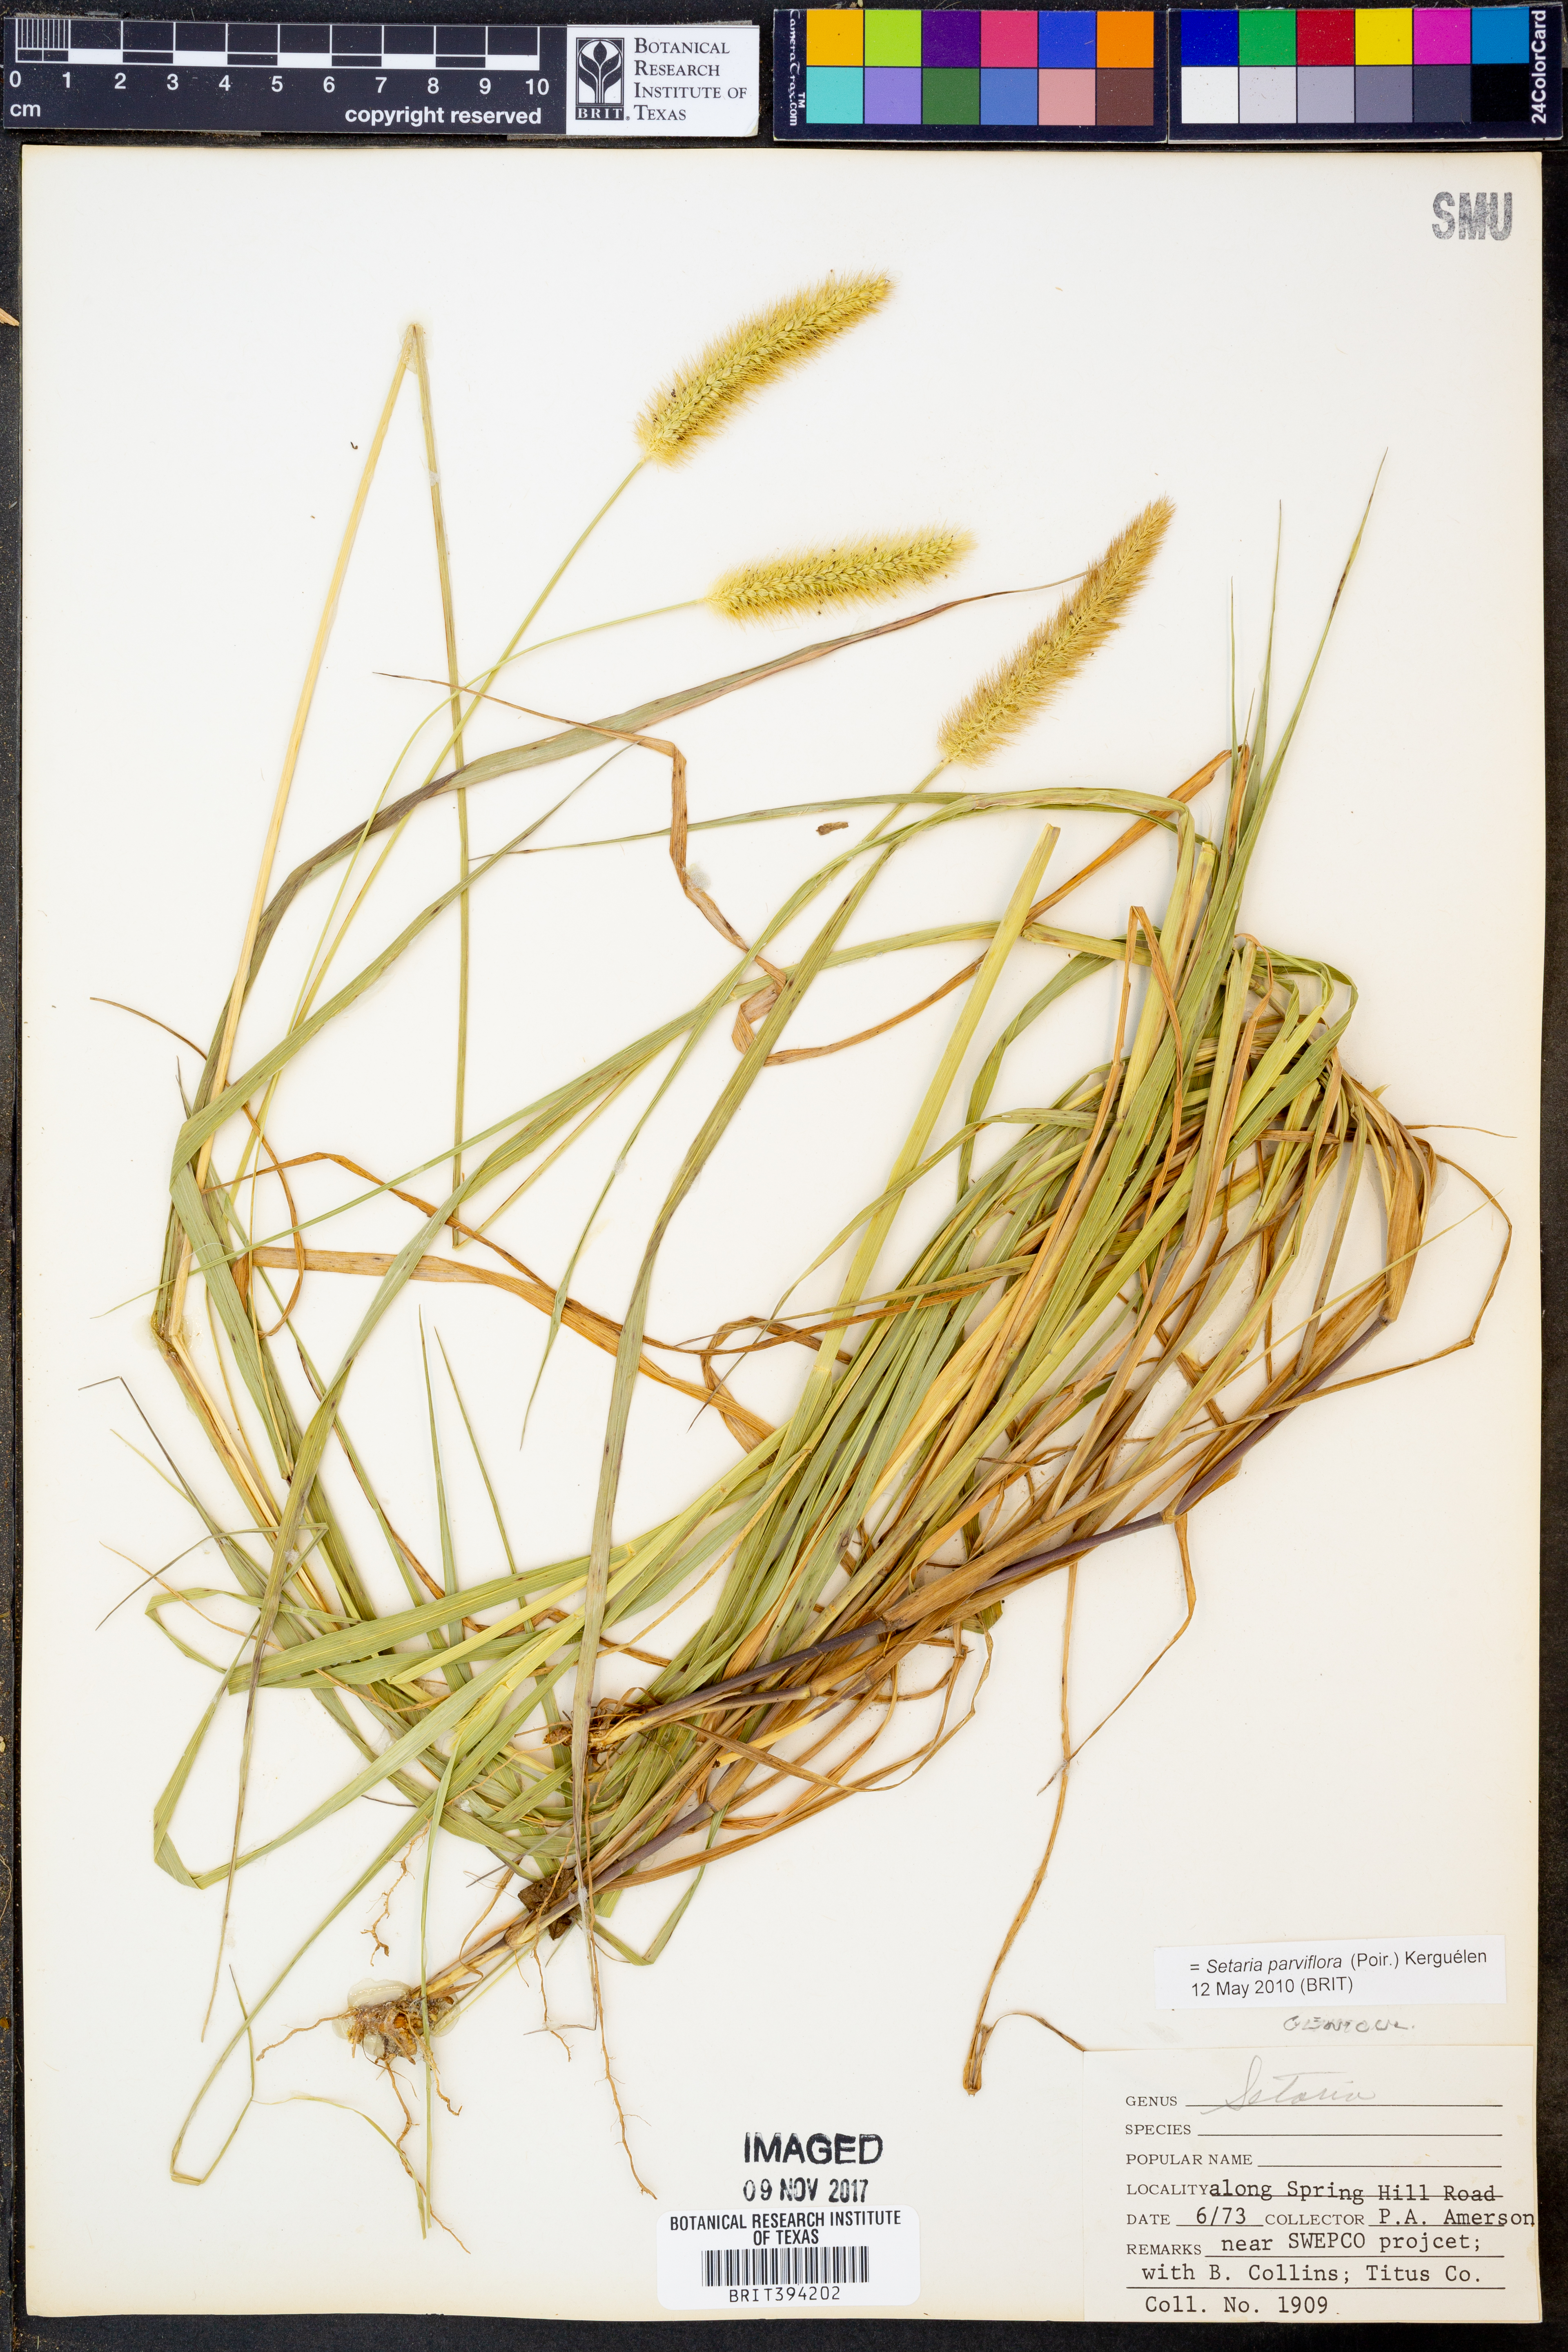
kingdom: Plantae
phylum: Tracheophyta
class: Liliopsida
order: Poales
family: Poaceae
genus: Setaria
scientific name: Setaria parviflora
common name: Knotroot bristle-grass
